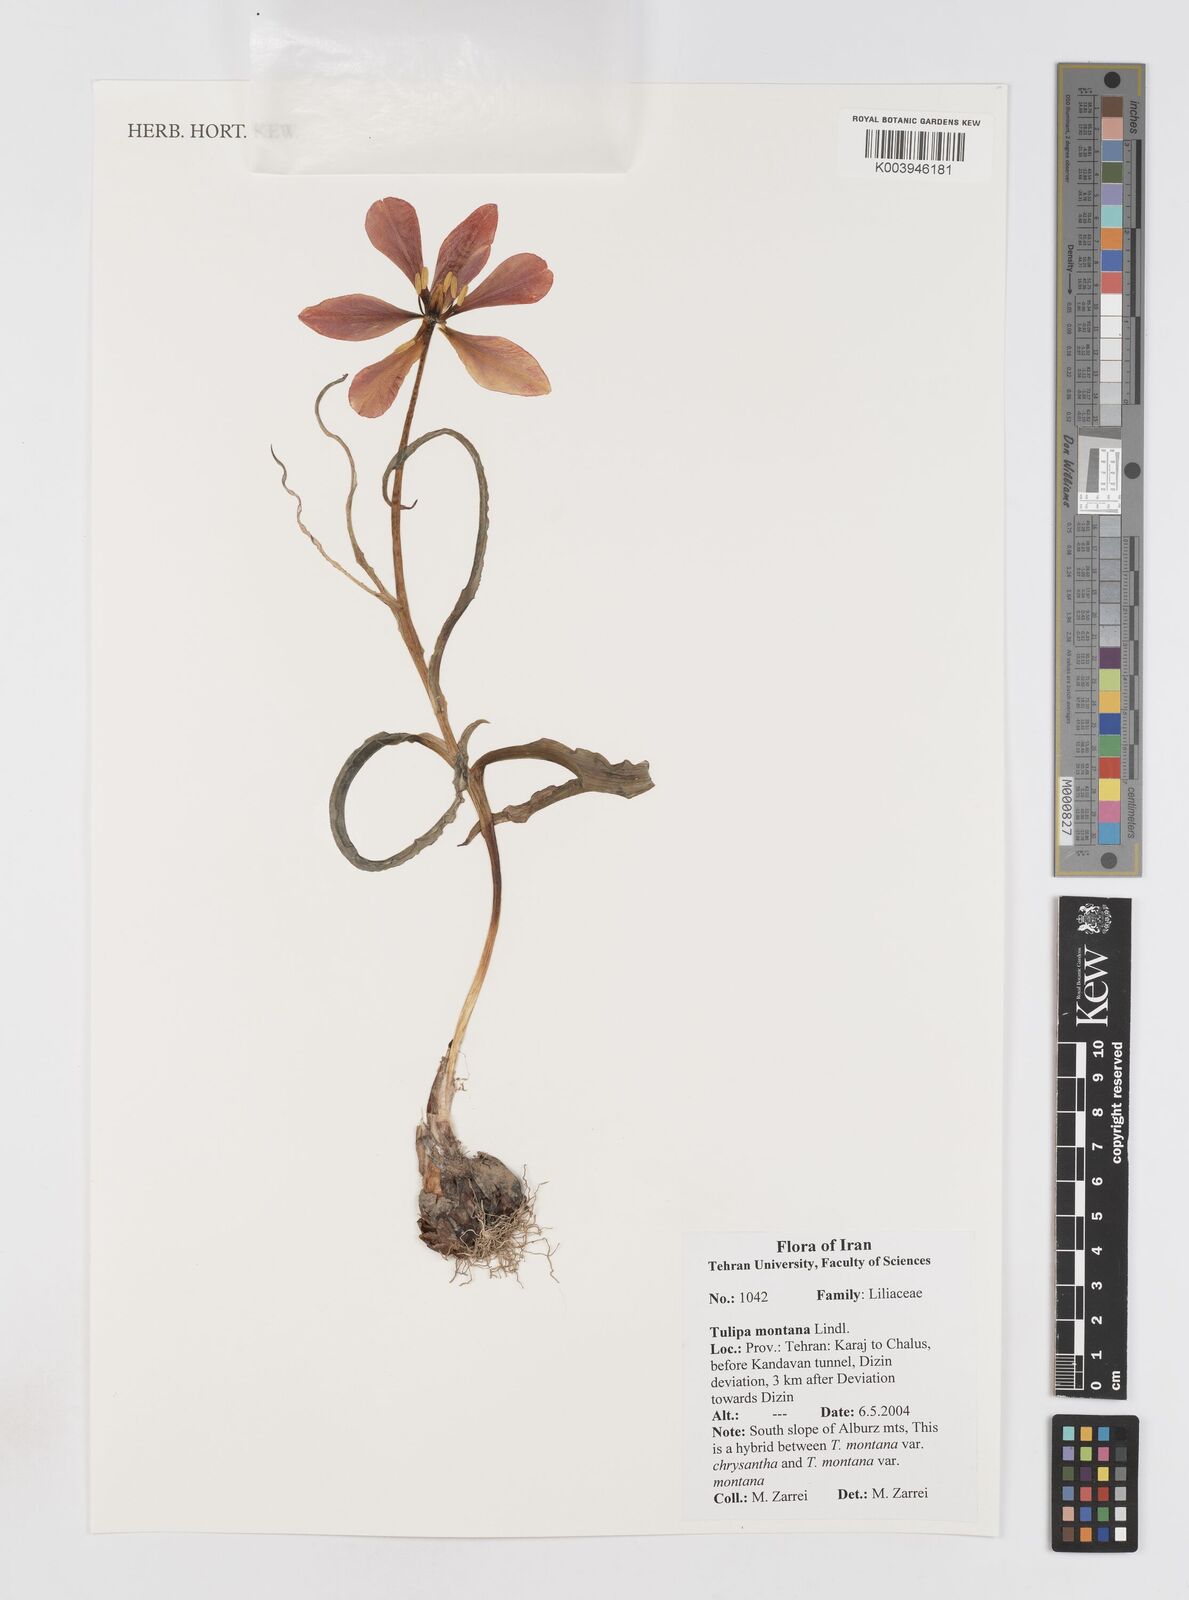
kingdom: Plantae
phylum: Tracheophyta
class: Liliopsida
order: Liliales
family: Liliaceae
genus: Tulipa
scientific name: Tulipa montana
